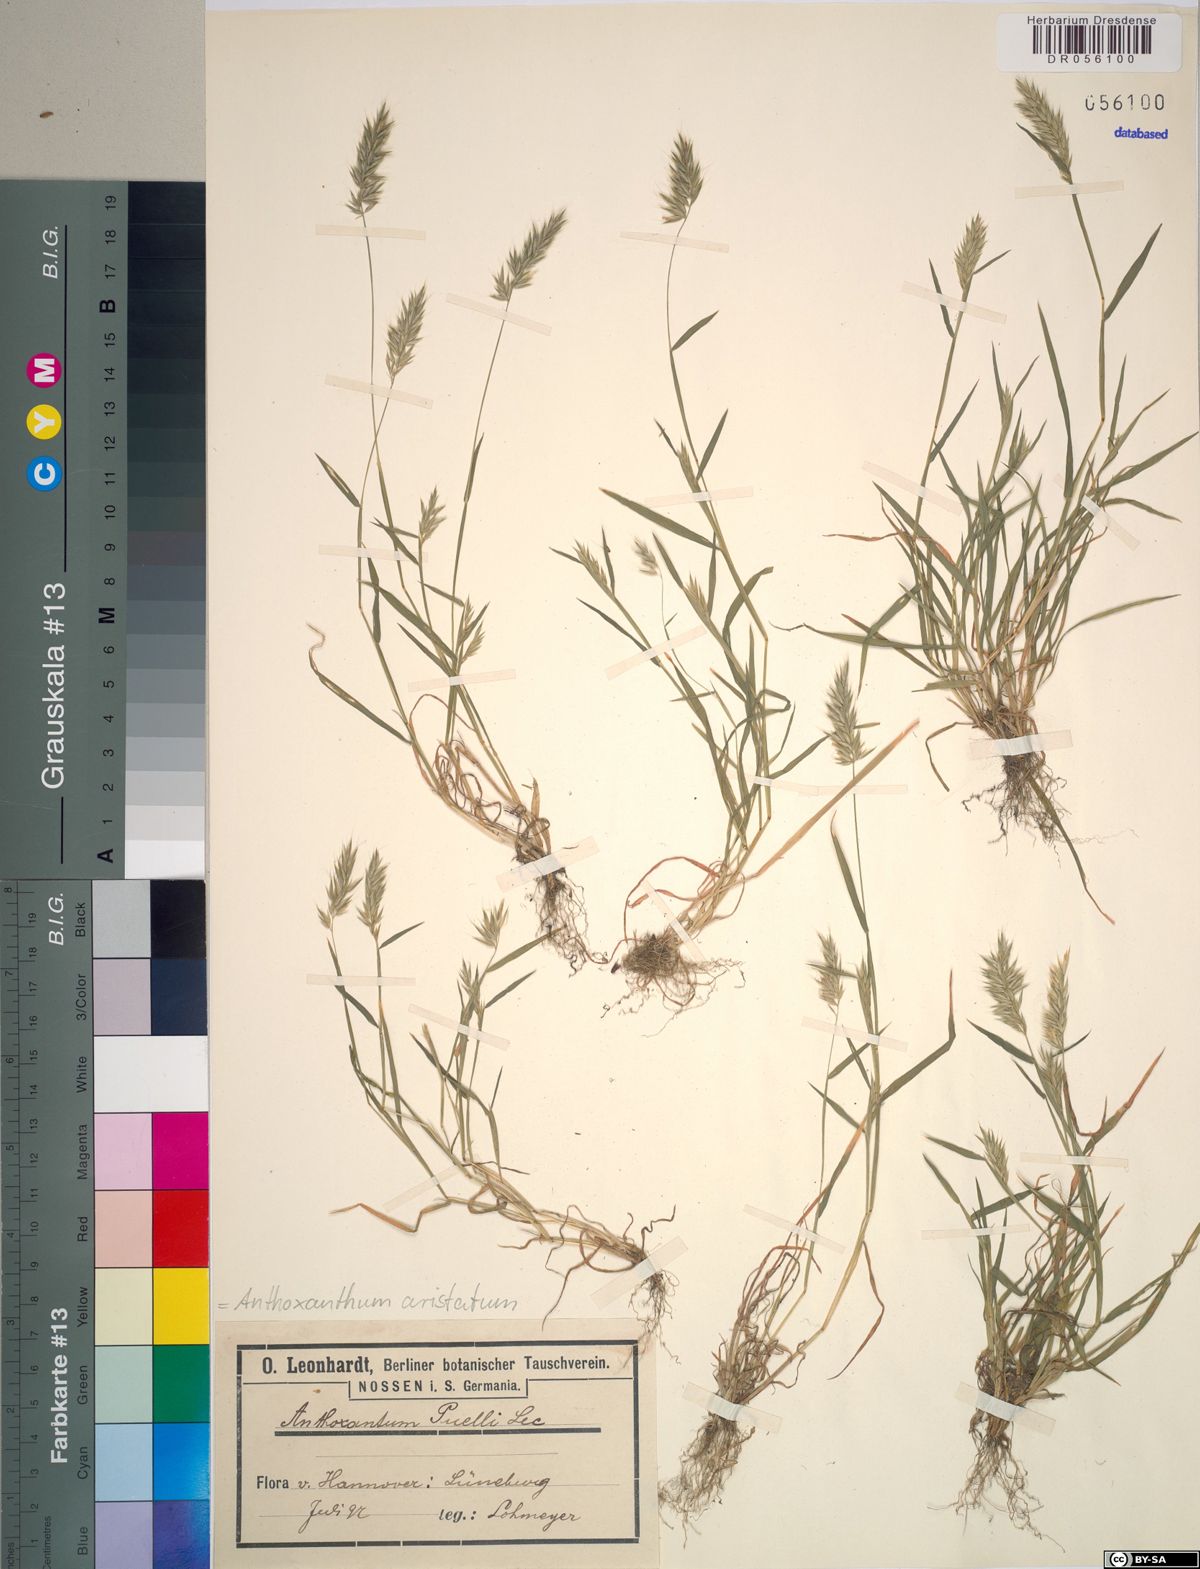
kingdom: Plantae
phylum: Tracheophyta
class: Liliopsida
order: Poales
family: Poaceae
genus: Anthoxanthum
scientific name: Anthoxanthum aristatum
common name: Annual vernal-grass
